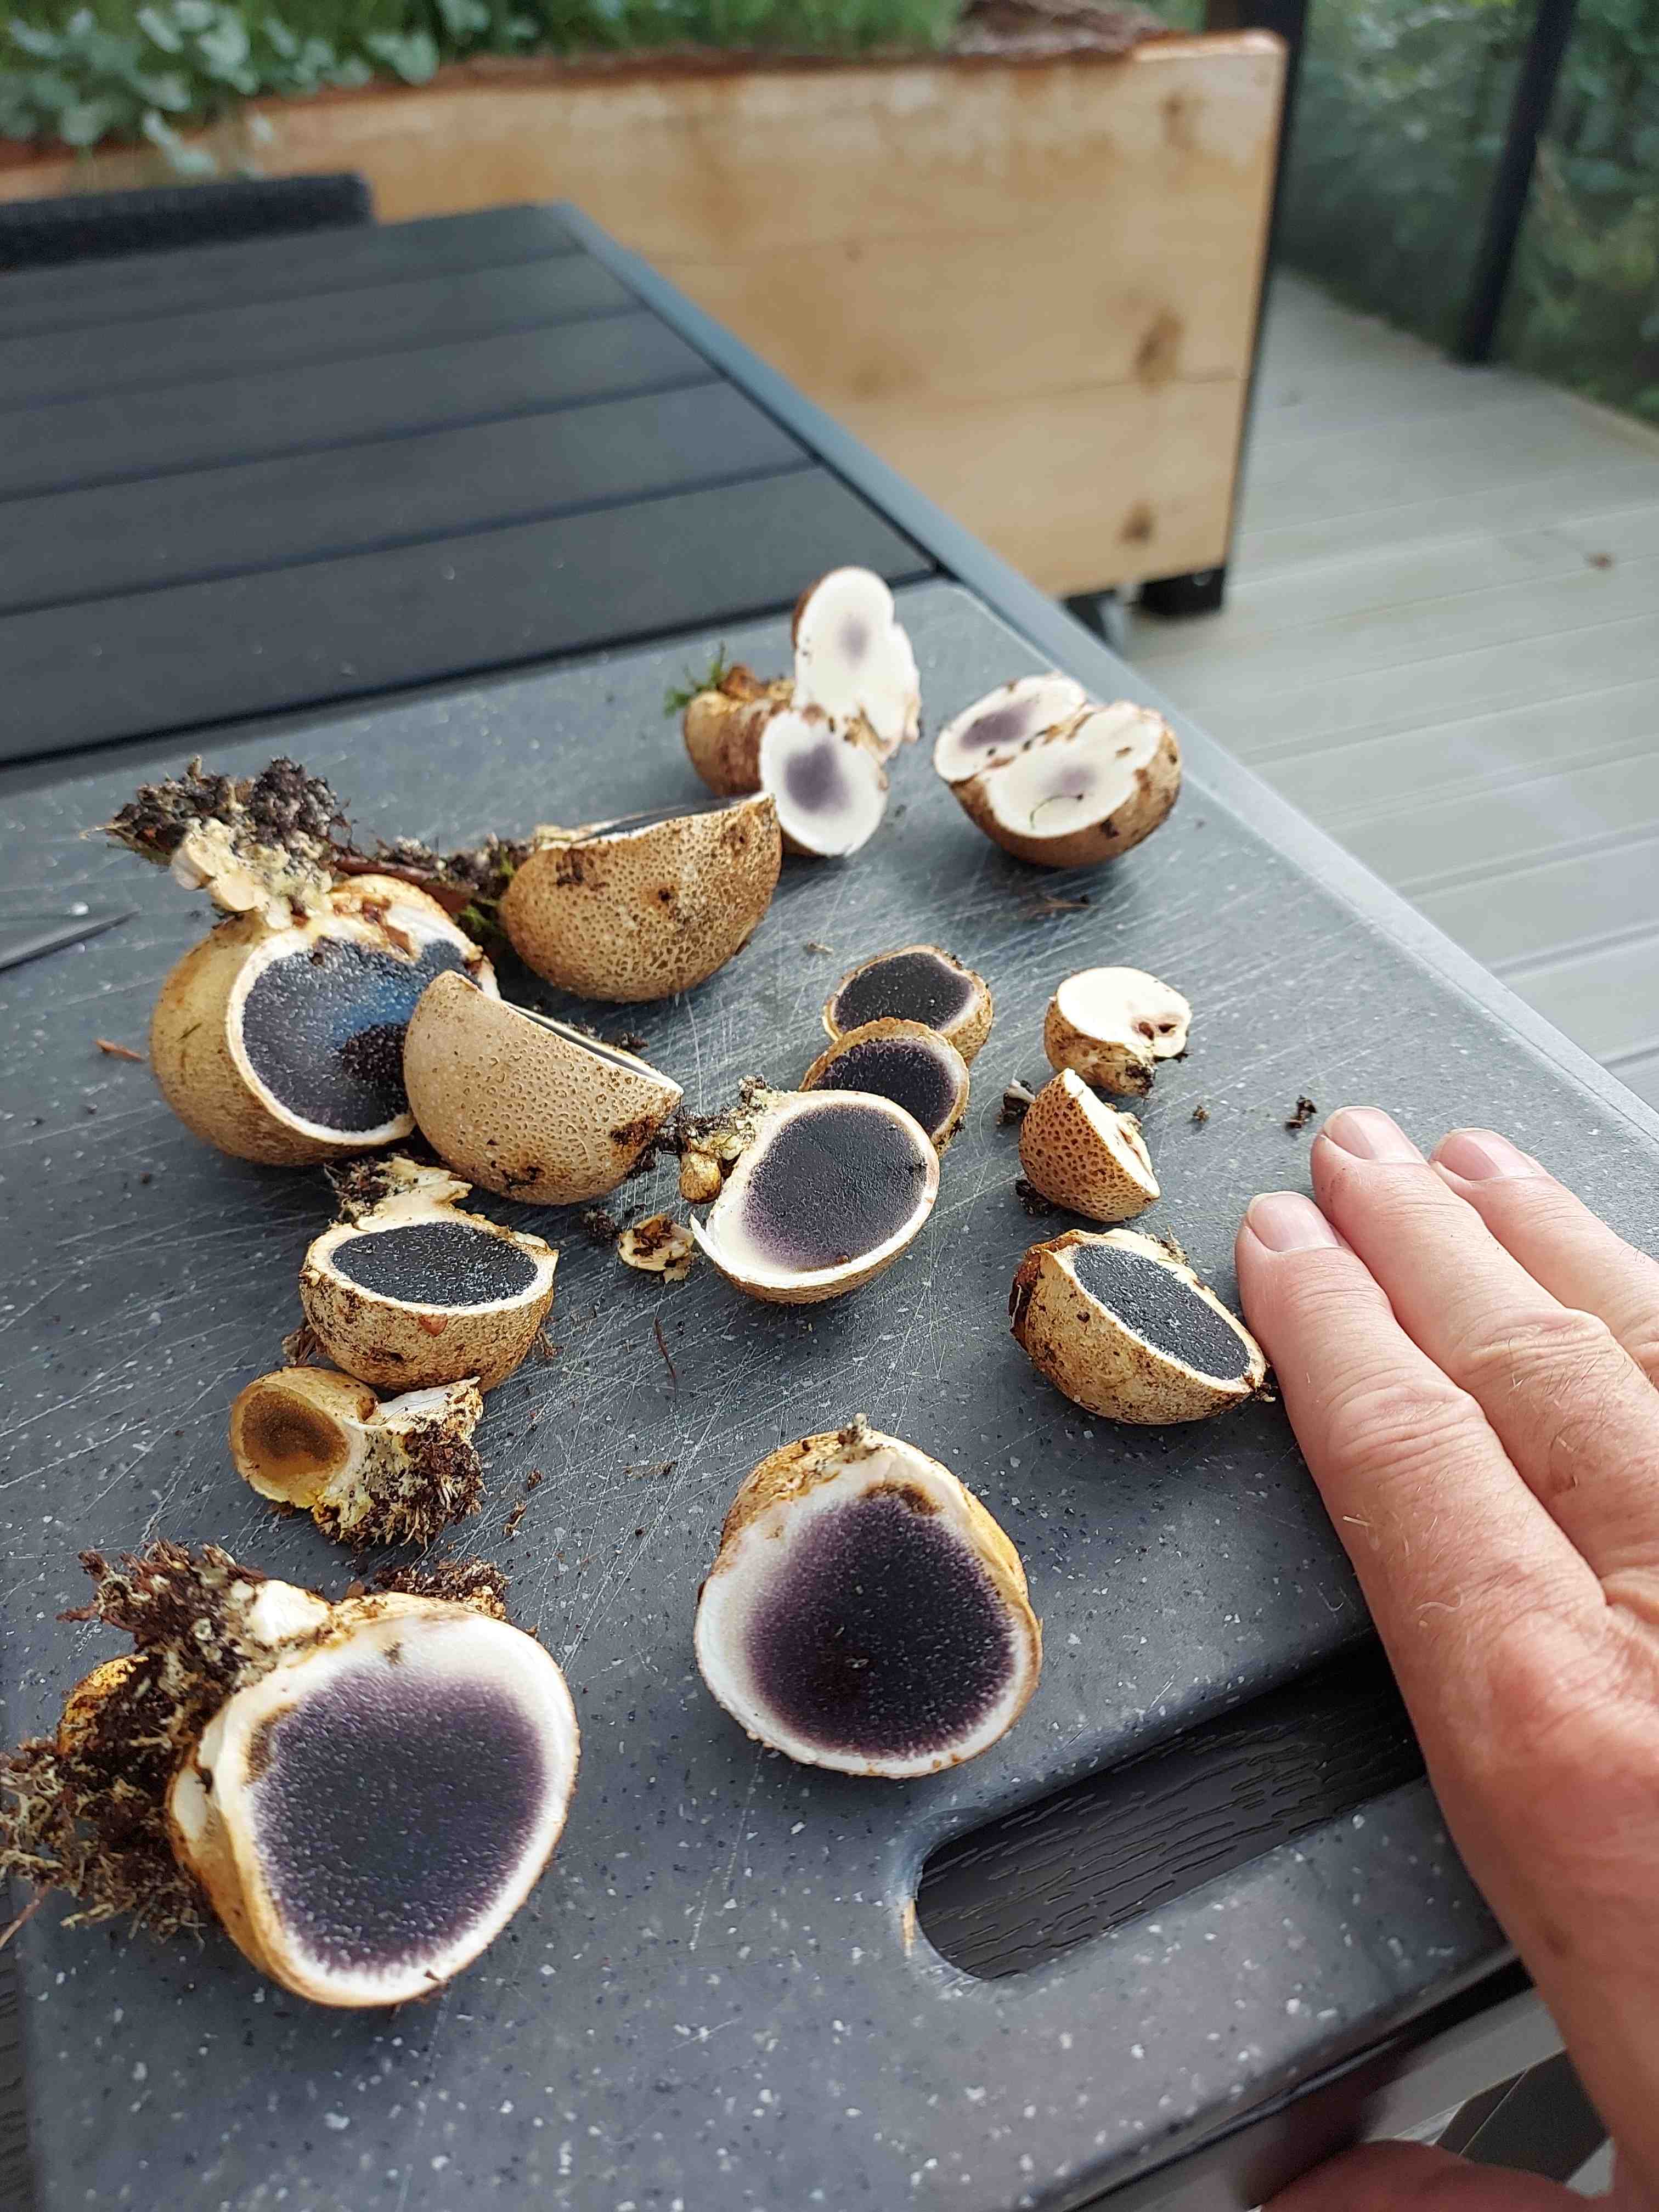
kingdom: Fungi
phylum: Basidiomycota
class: Agaricomycetes
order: Boletales
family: Sclerodermataceae
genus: Scleroderma
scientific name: Scleroderma citrinum
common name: almindelig bruskbold
